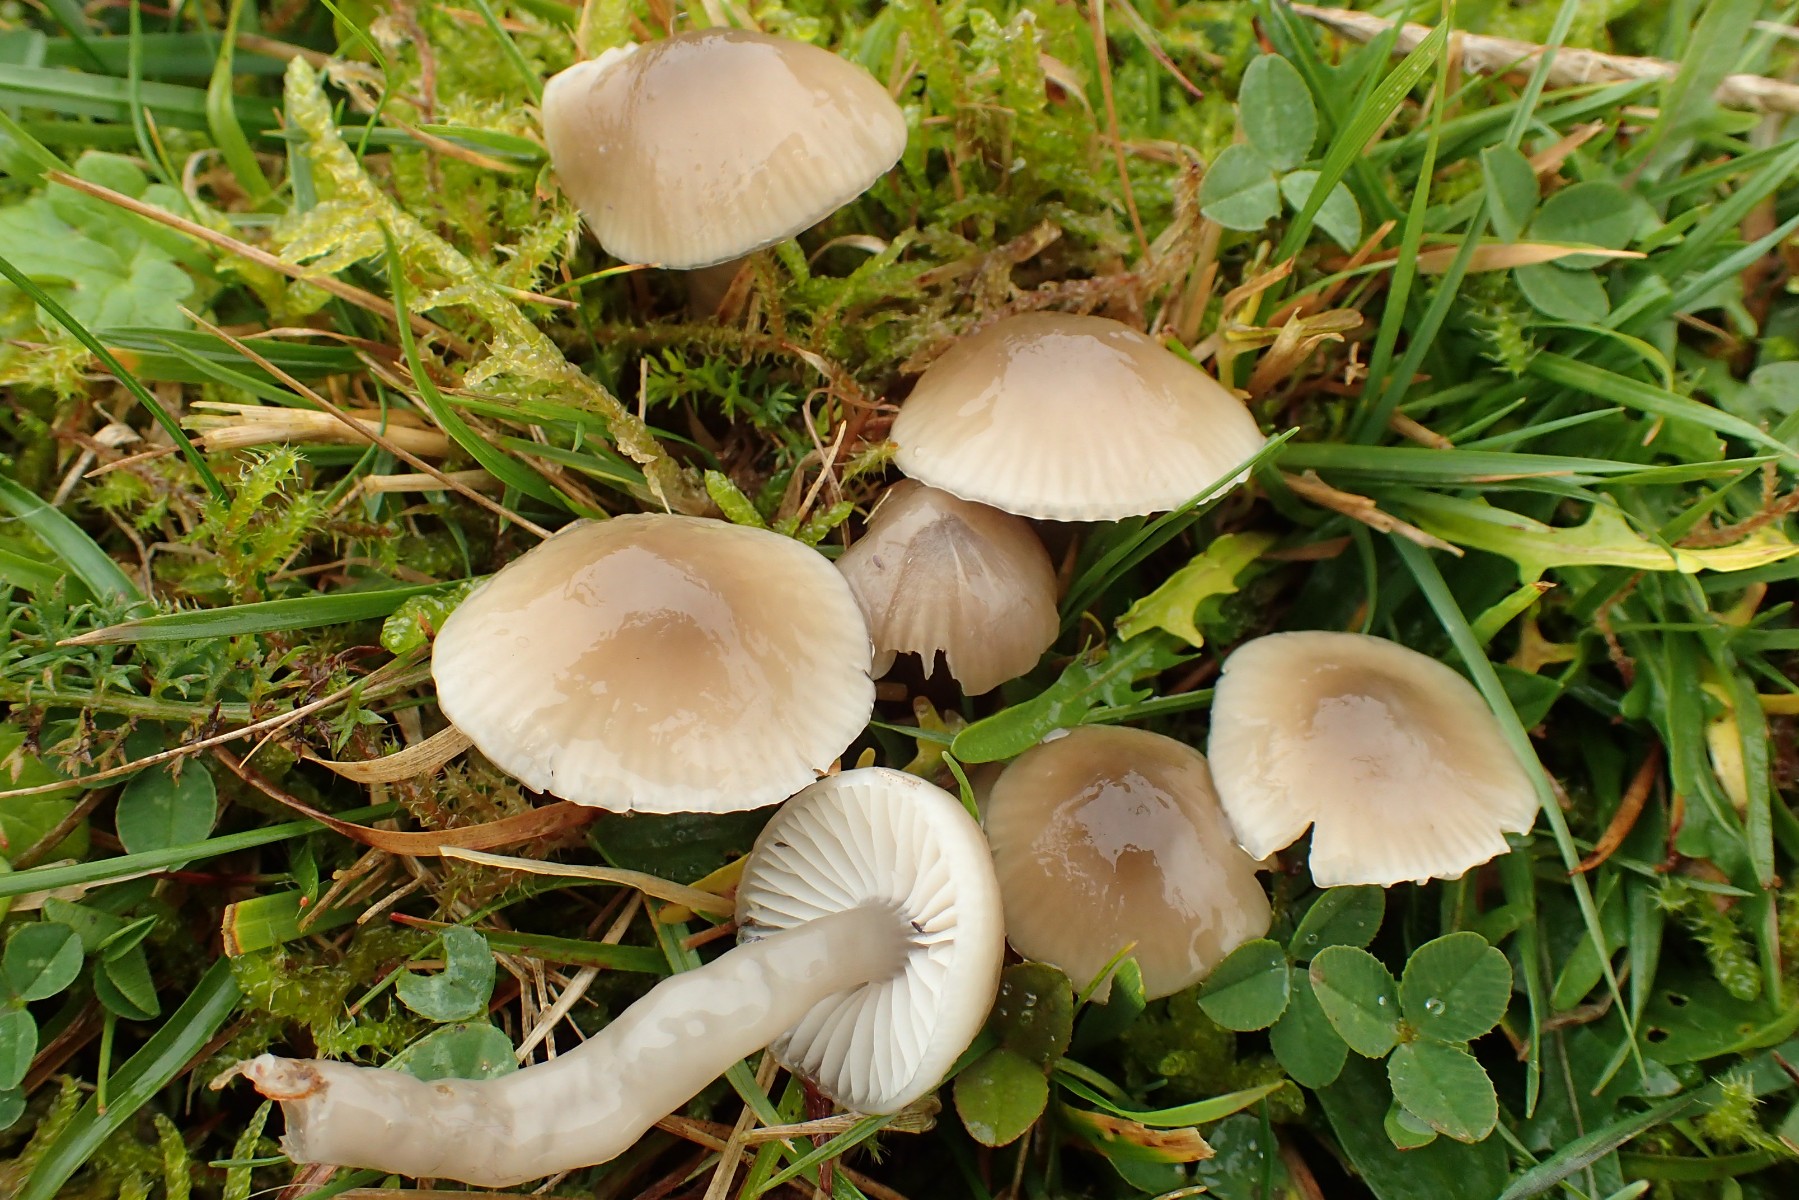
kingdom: Fungi
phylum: Basidiomycota
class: Agaricomycetes
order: Agaricales
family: Hygrophoraceae
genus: Gliophorus
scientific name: Gliophorus irrigatus
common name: slimet vokshat
